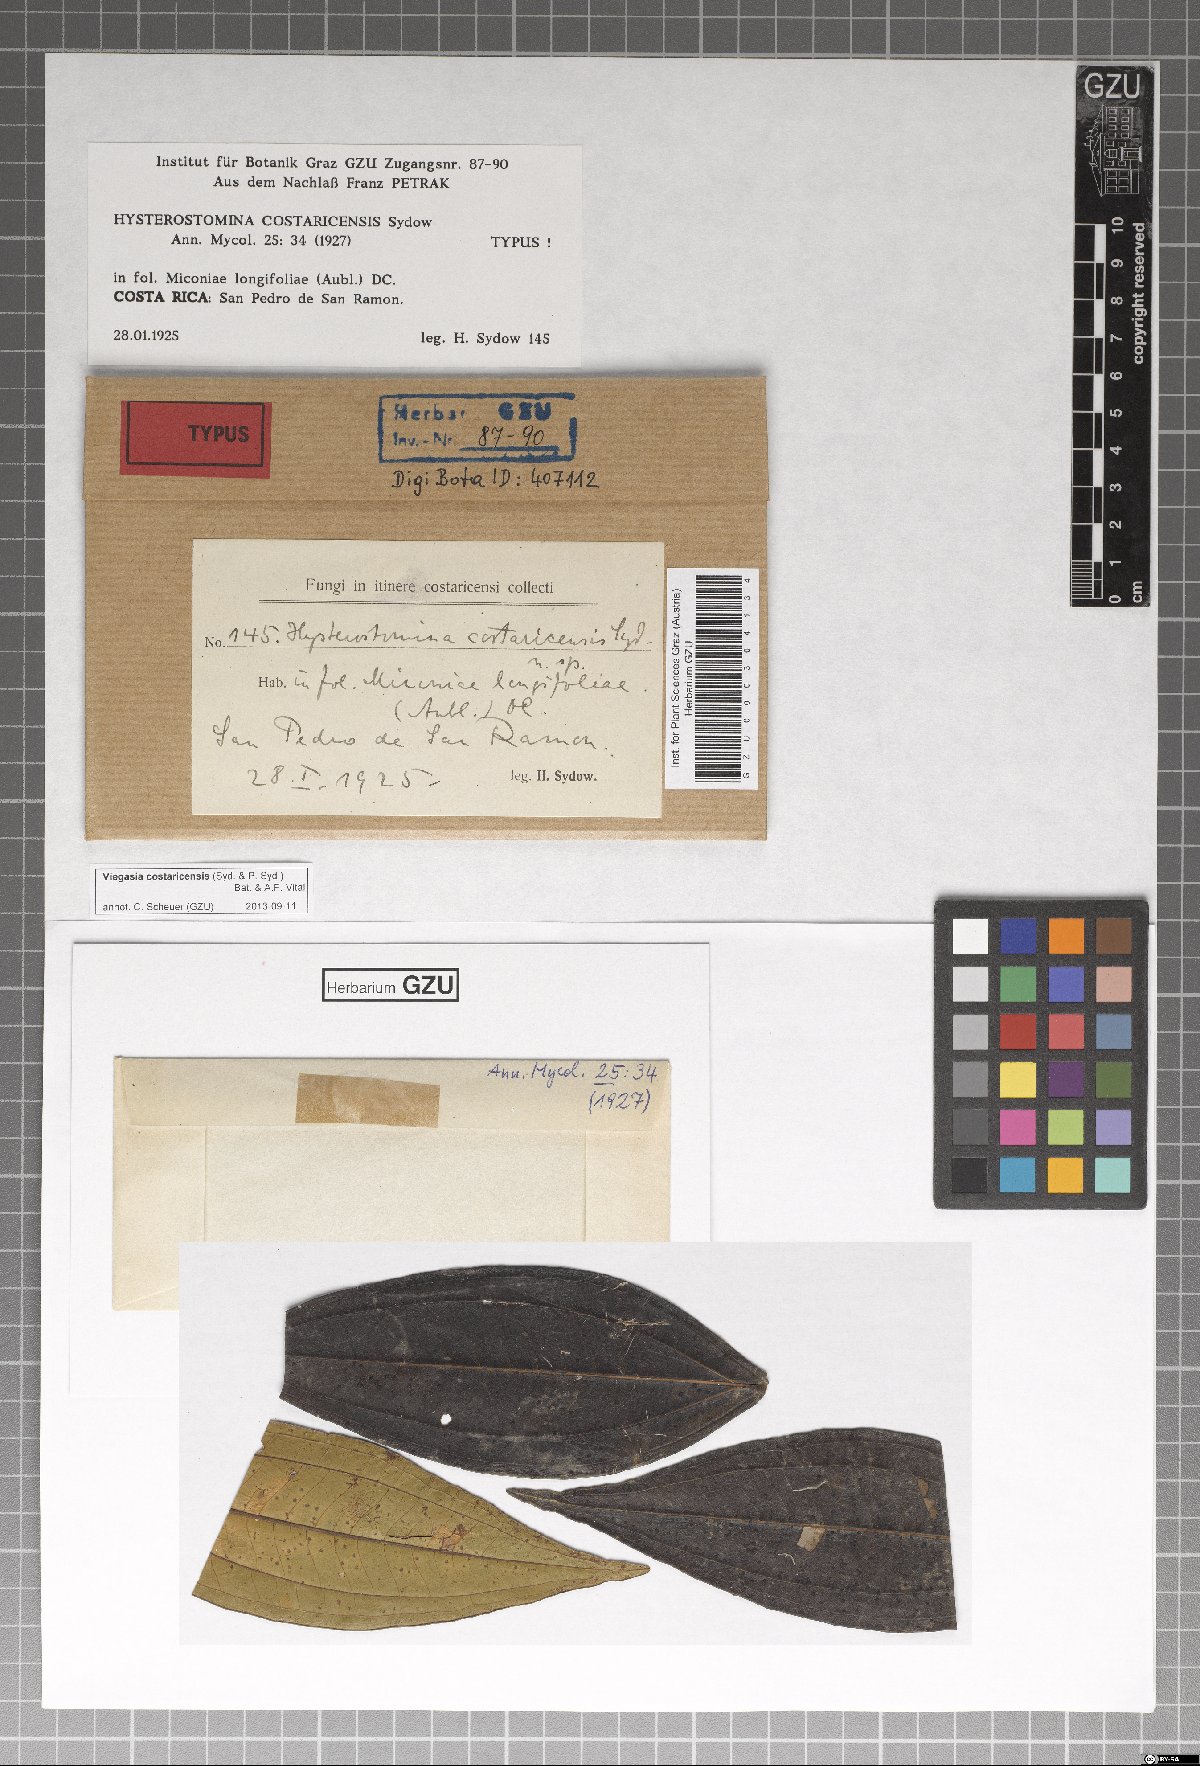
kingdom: Fungi
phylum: Ascomycota
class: Dothideomycetes
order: Asterinales
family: Asterinaceae
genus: Viegasia
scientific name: Viegasia costaricensis
